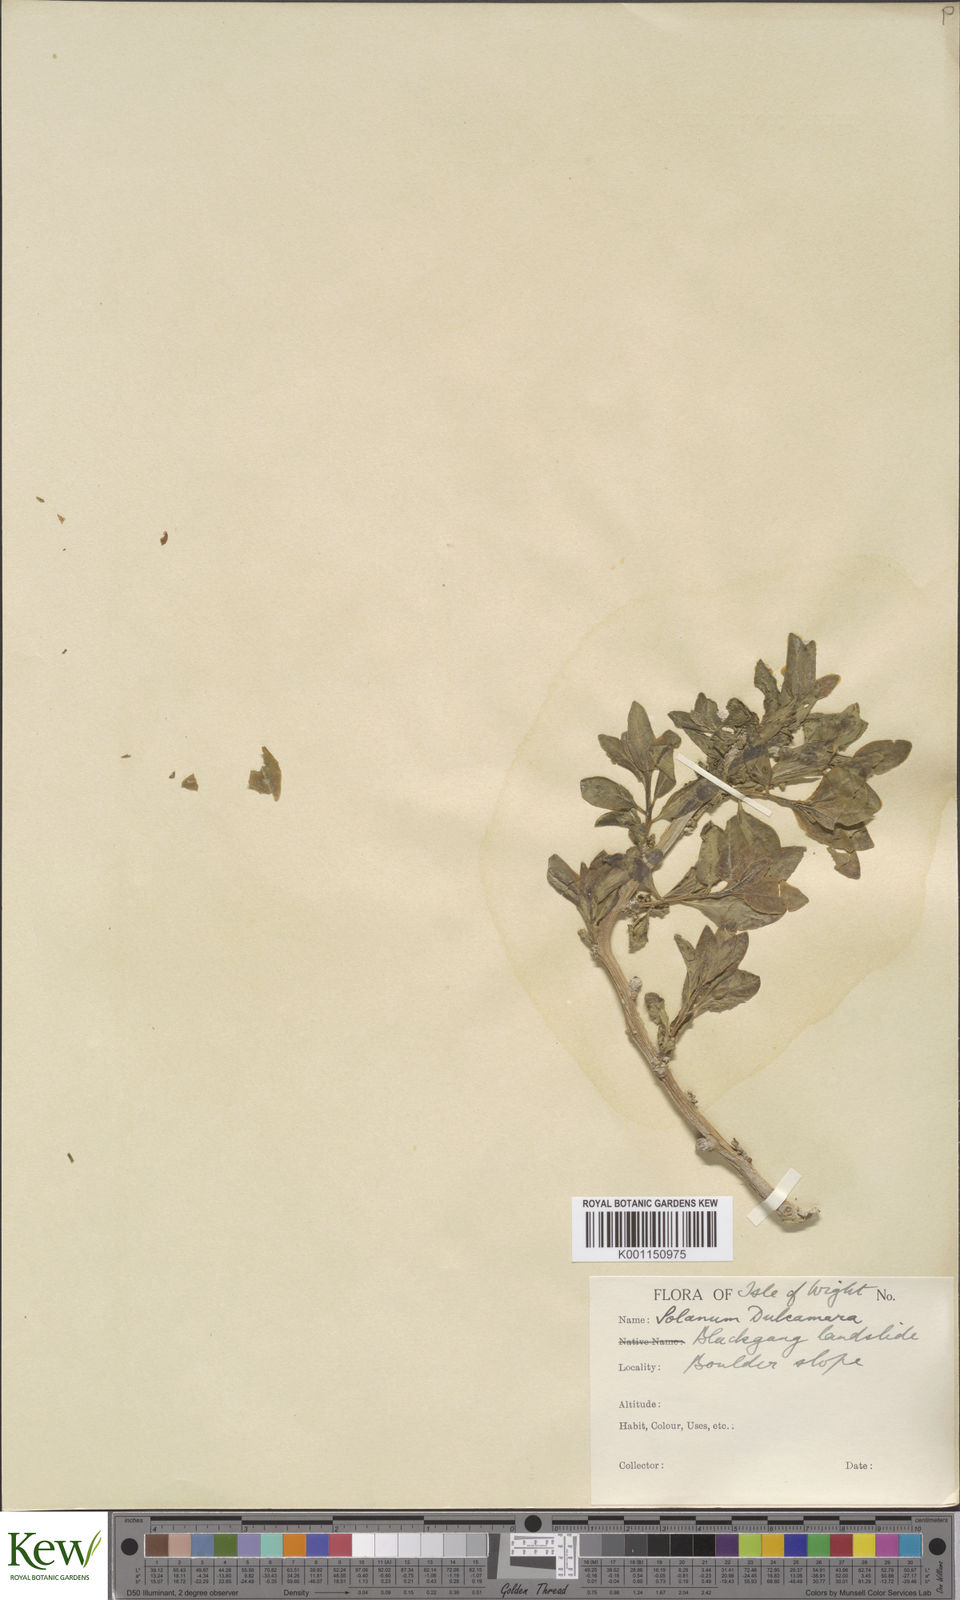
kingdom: Plantae
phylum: Tracheophyta
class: Magnoliopsida
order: Solanales
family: Solanaceae
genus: Solanum
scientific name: Solanum dulcamara
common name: Climbing nightshade
